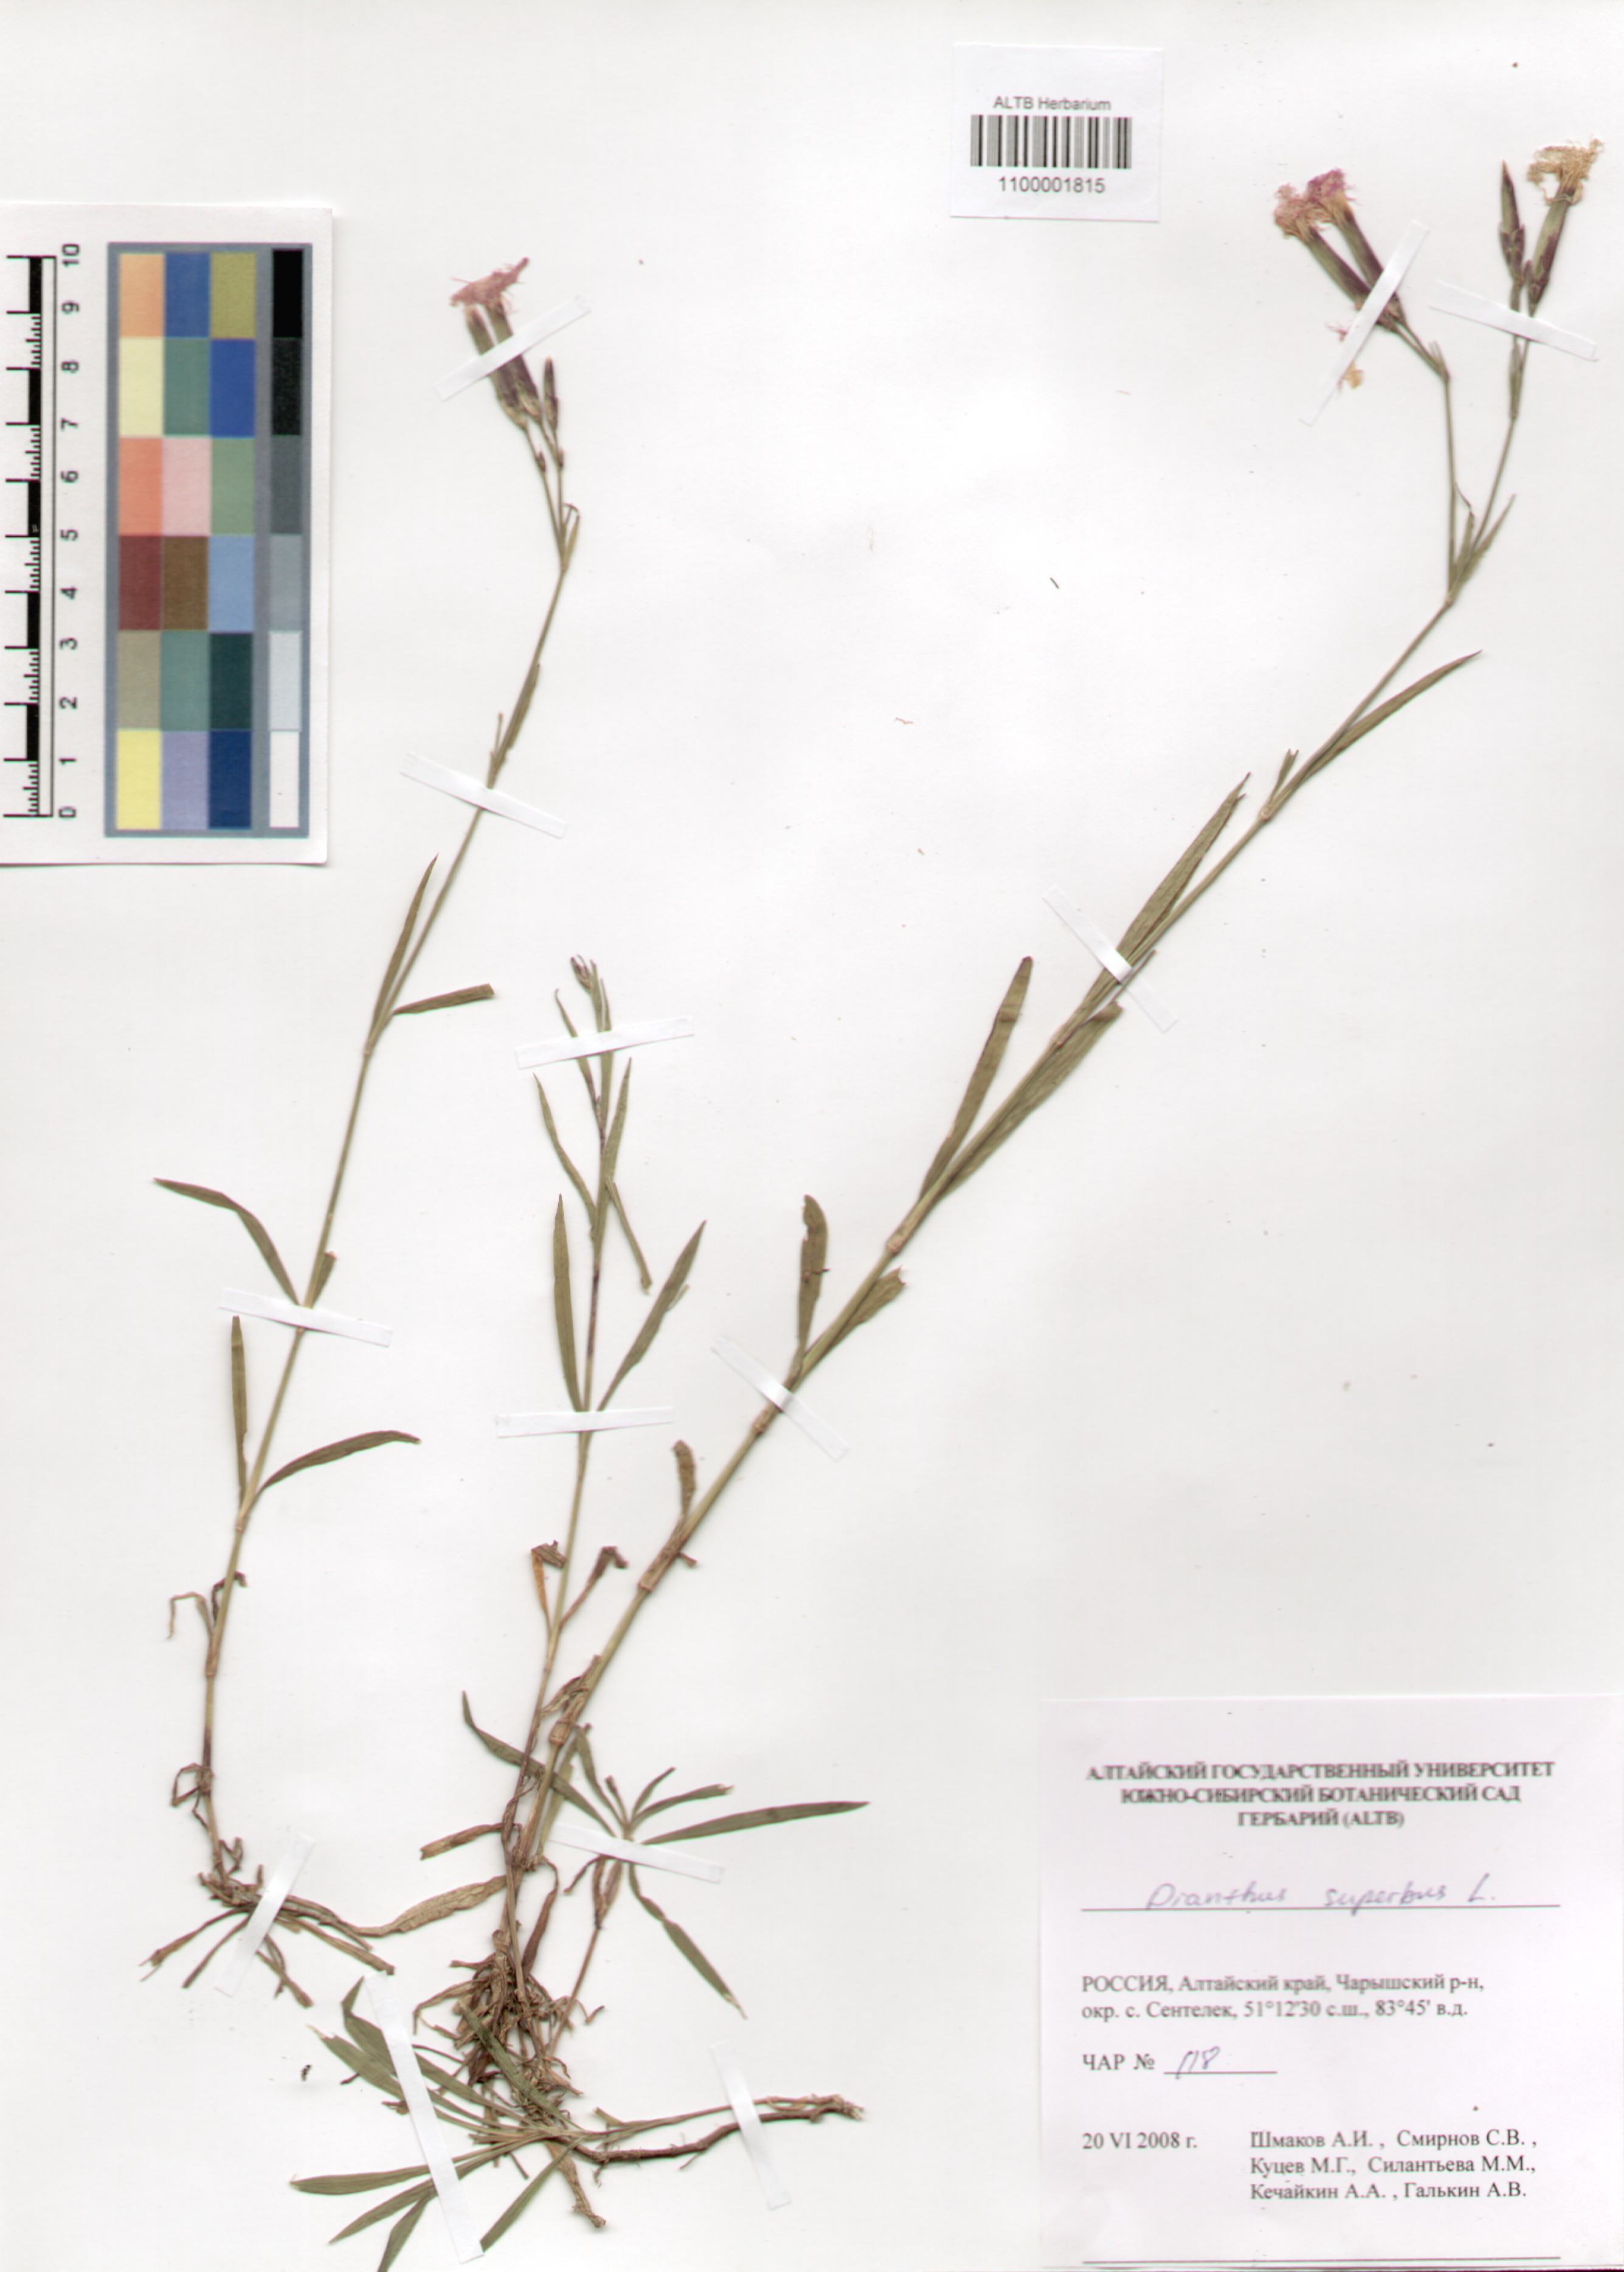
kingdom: Plantae
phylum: Tracheophyta
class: Magnoliopsida
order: Caryophyllales
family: Caryophyllaceae
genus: Dianthus
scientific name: Dianthus superbus
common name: Fringed pink
